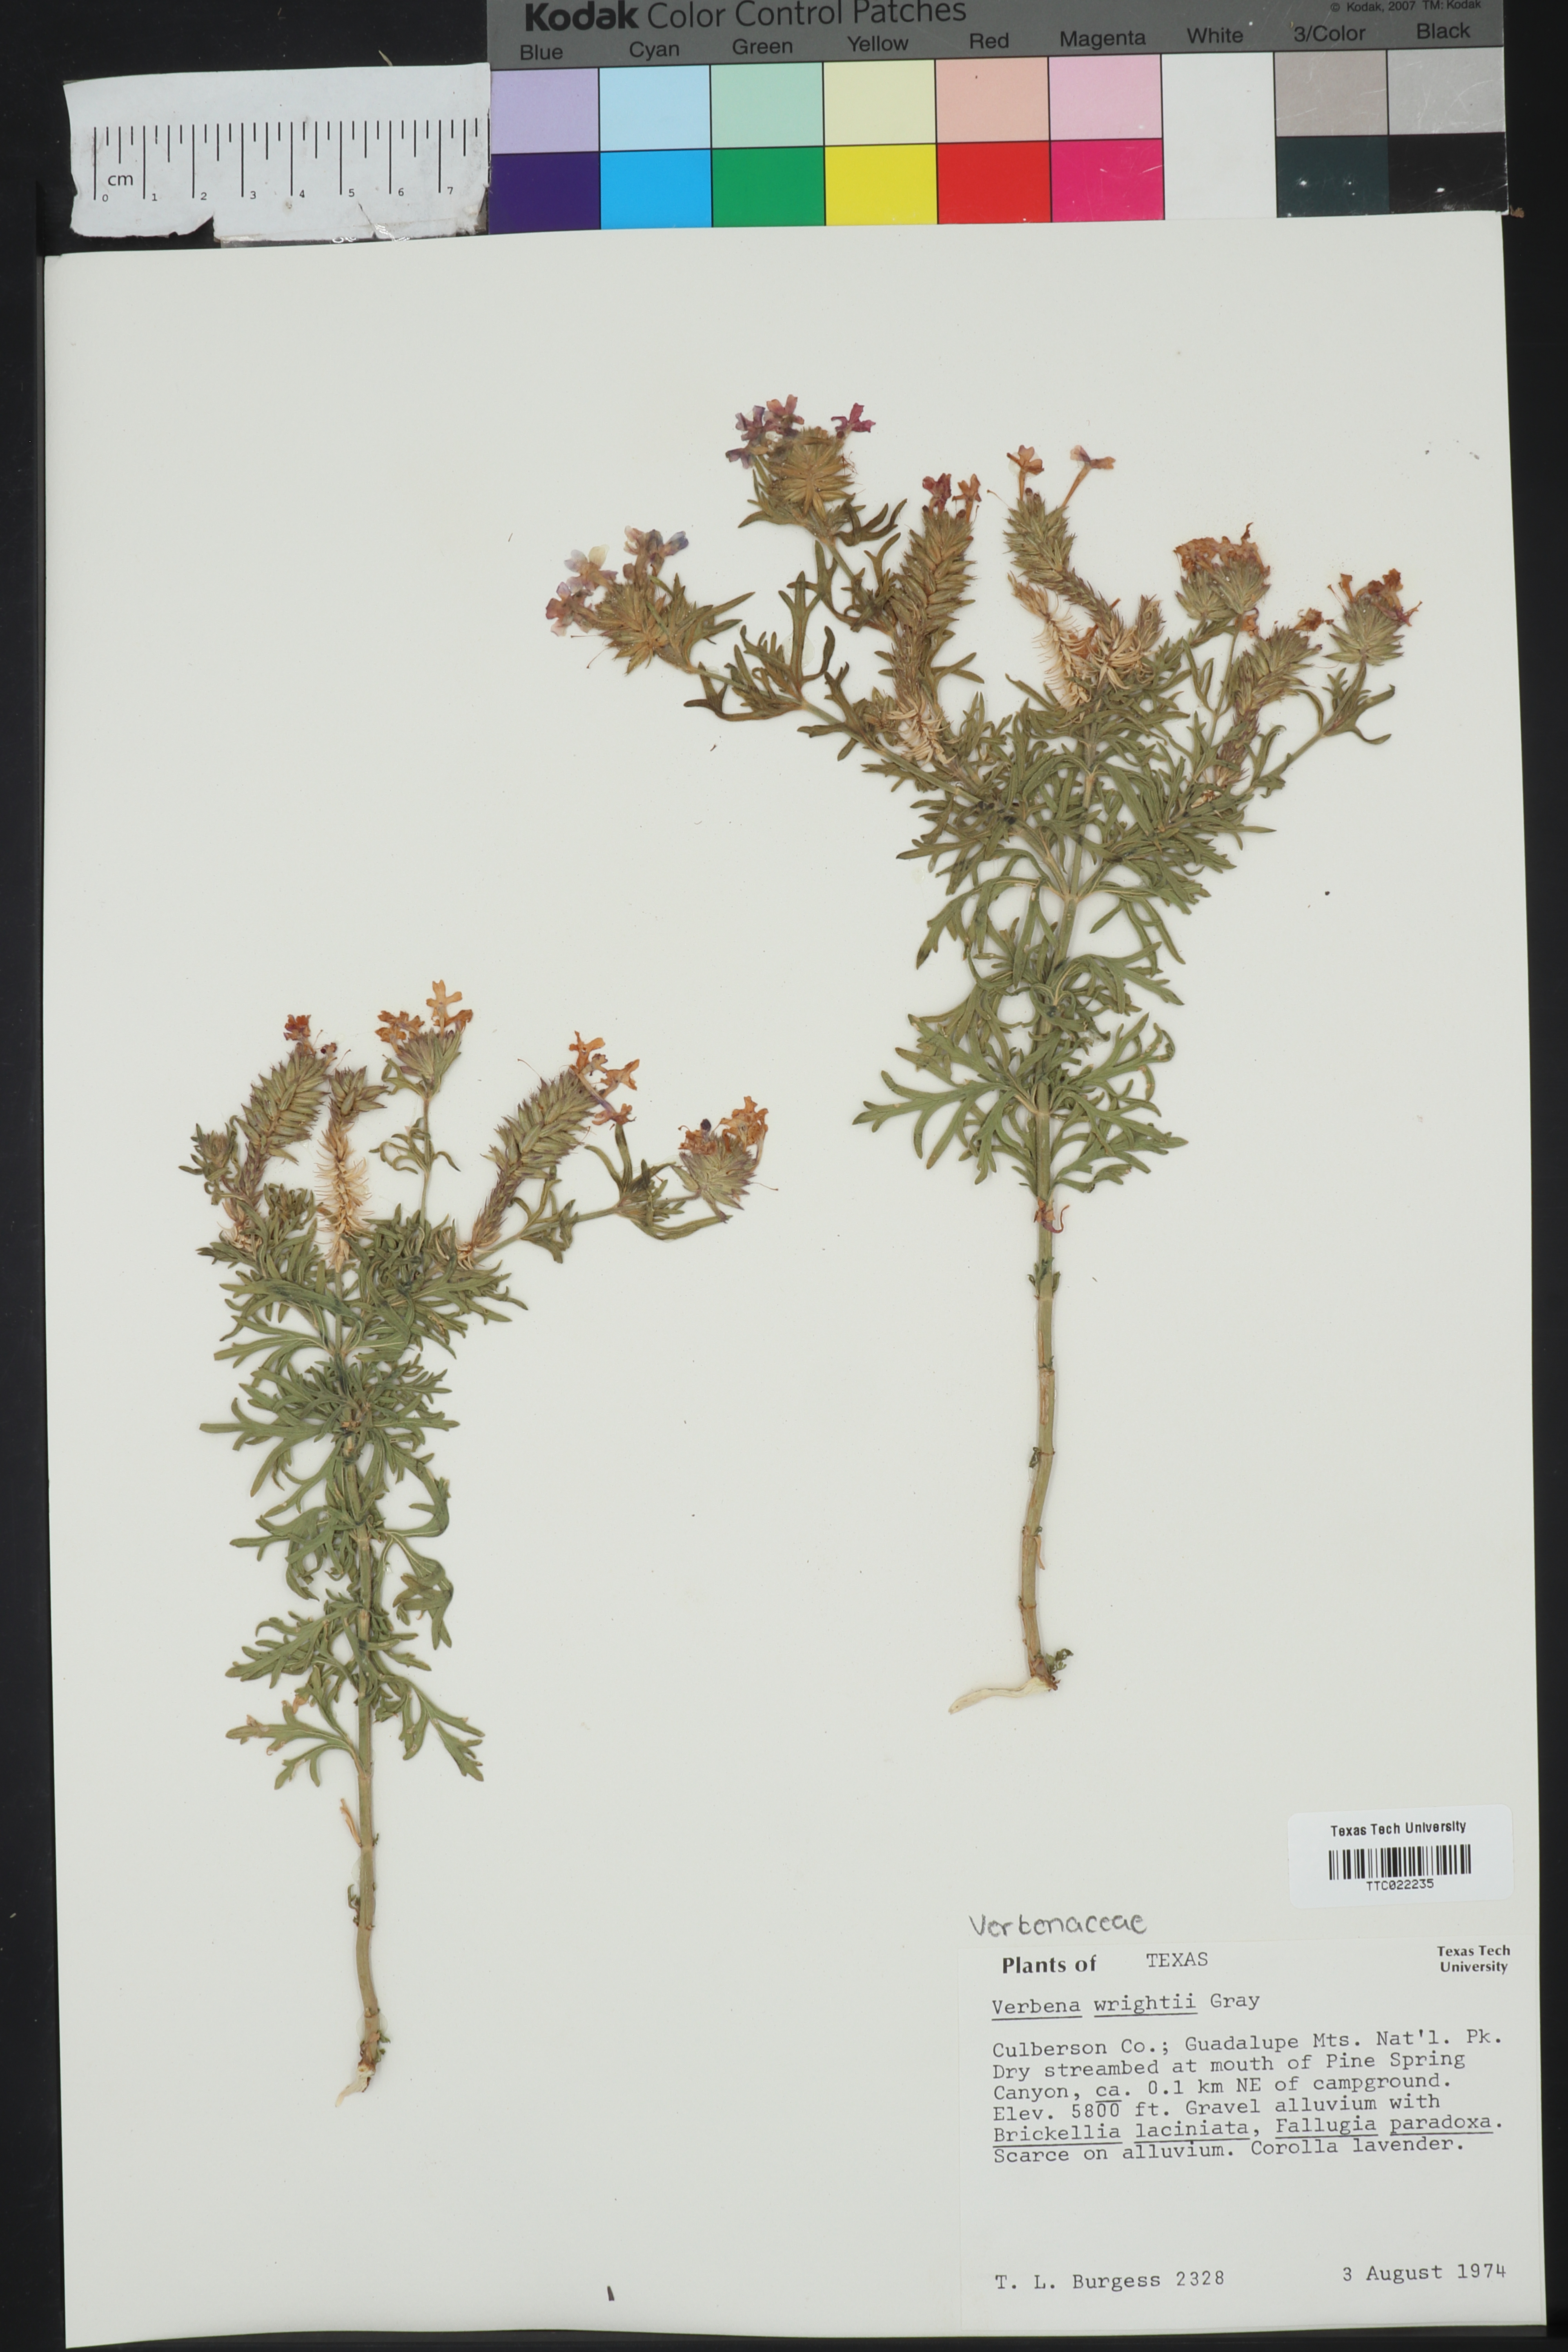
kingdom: Plantae
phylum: Tracheophyta
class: Magnoliopsida
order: Lamiales
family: Verbenaceae
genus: Verbena
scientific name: Verbena bipinnatifida
